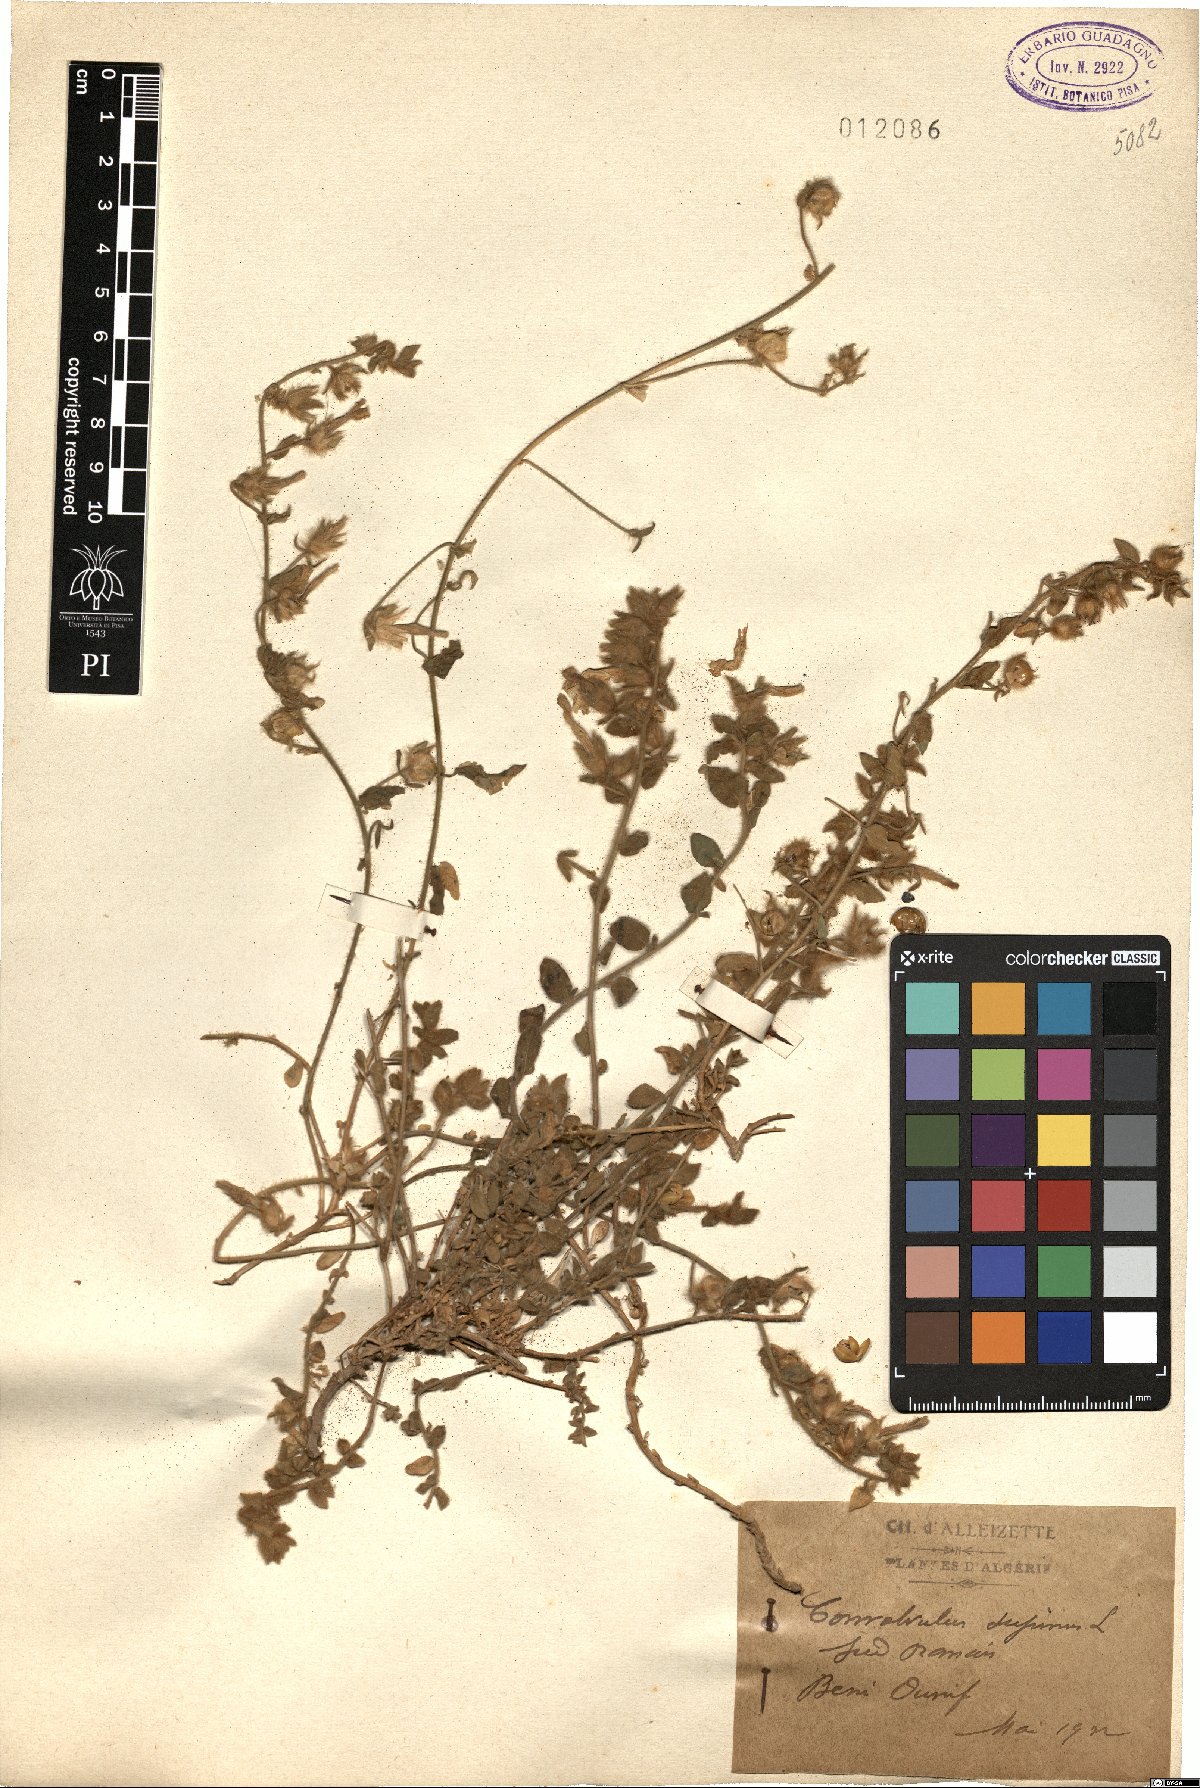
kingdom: Plantae
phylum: Tracheophyta
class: Magnoliopsida
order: Solanales
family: Convolvulaceae
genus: Convolvulus
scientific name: Convolvulus supinus
